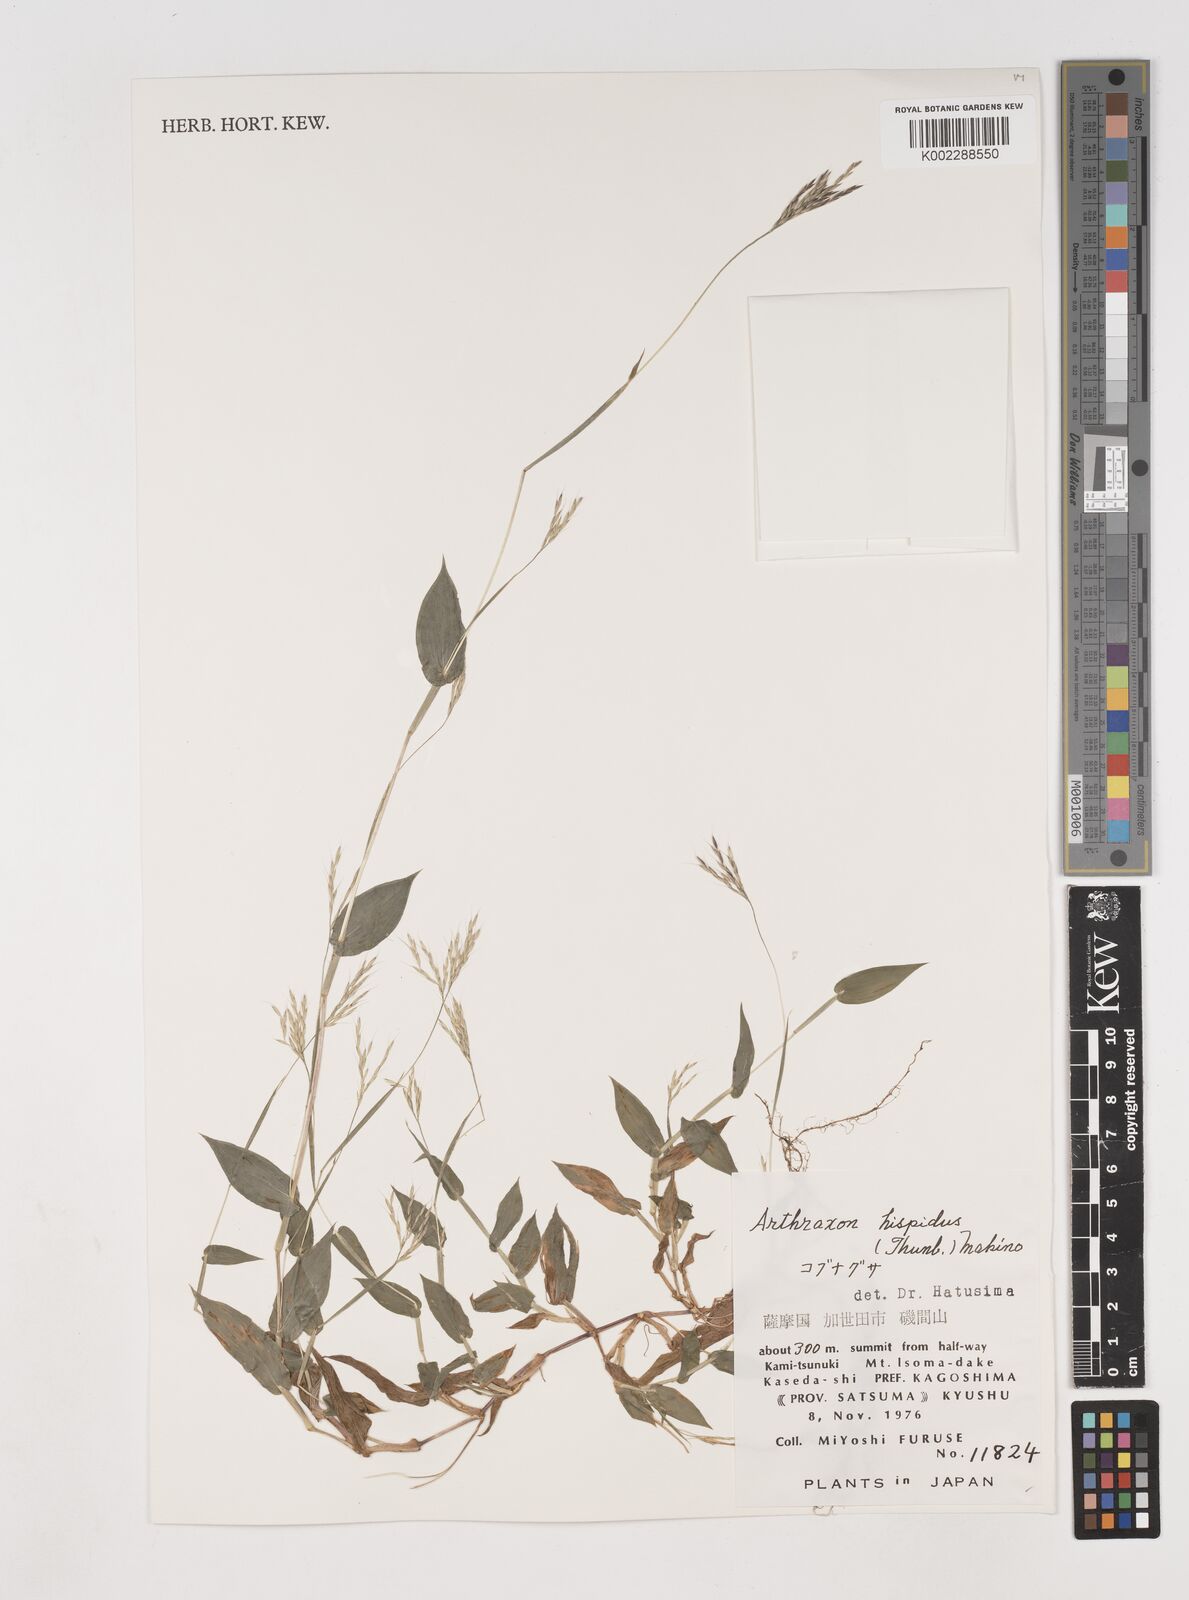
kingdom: Plantae
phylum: Tracheophyta
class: Liliopsida
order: Poales
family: Poaceae
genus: Arthraxon
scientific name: Arthraxon hispidus
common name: Small carpgrass
